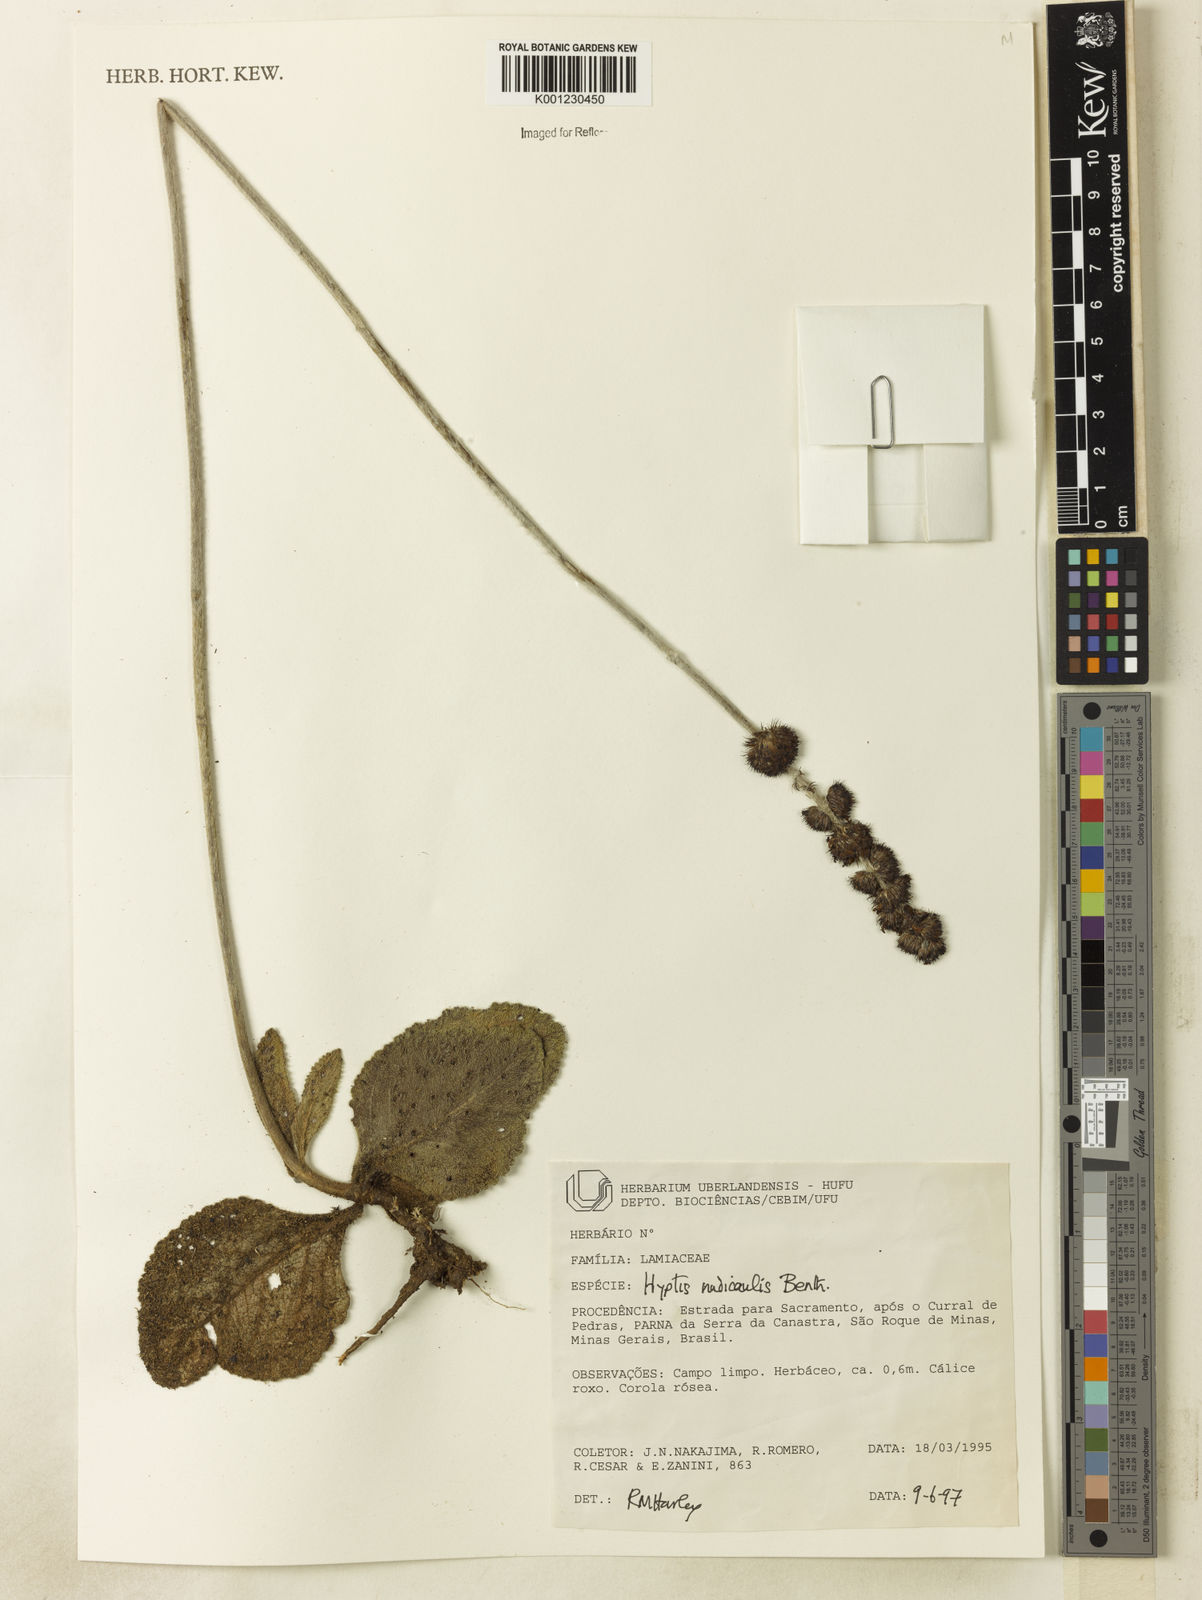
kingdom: Plantae
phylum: Tracheophyta
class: Magnoliopsida
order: Lamiales
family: Lamiaceae
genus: Hyptis
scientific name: Hyptis nudicaulis
